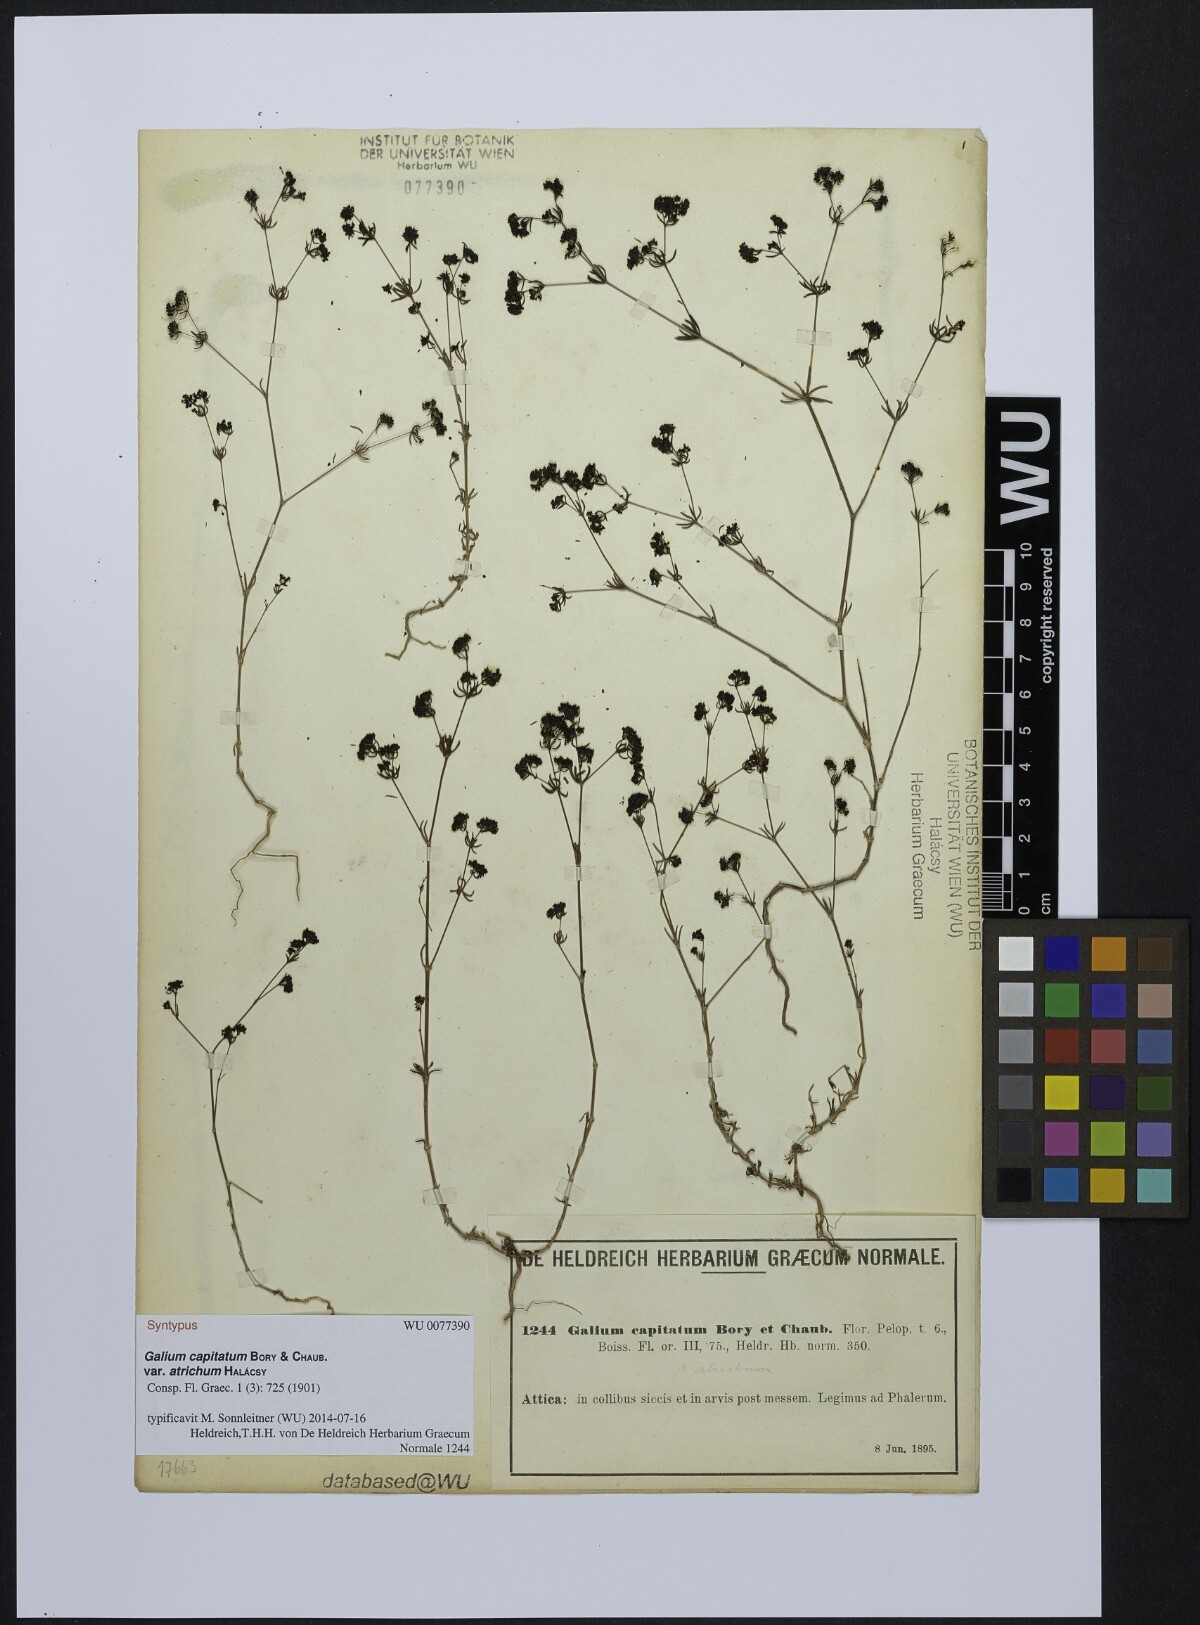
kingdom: Plantae
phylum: Tracheophyta
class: Magnoliopsida
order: Gentianales
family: Rubiaceae
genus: Galium
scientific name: Galium capitatum
